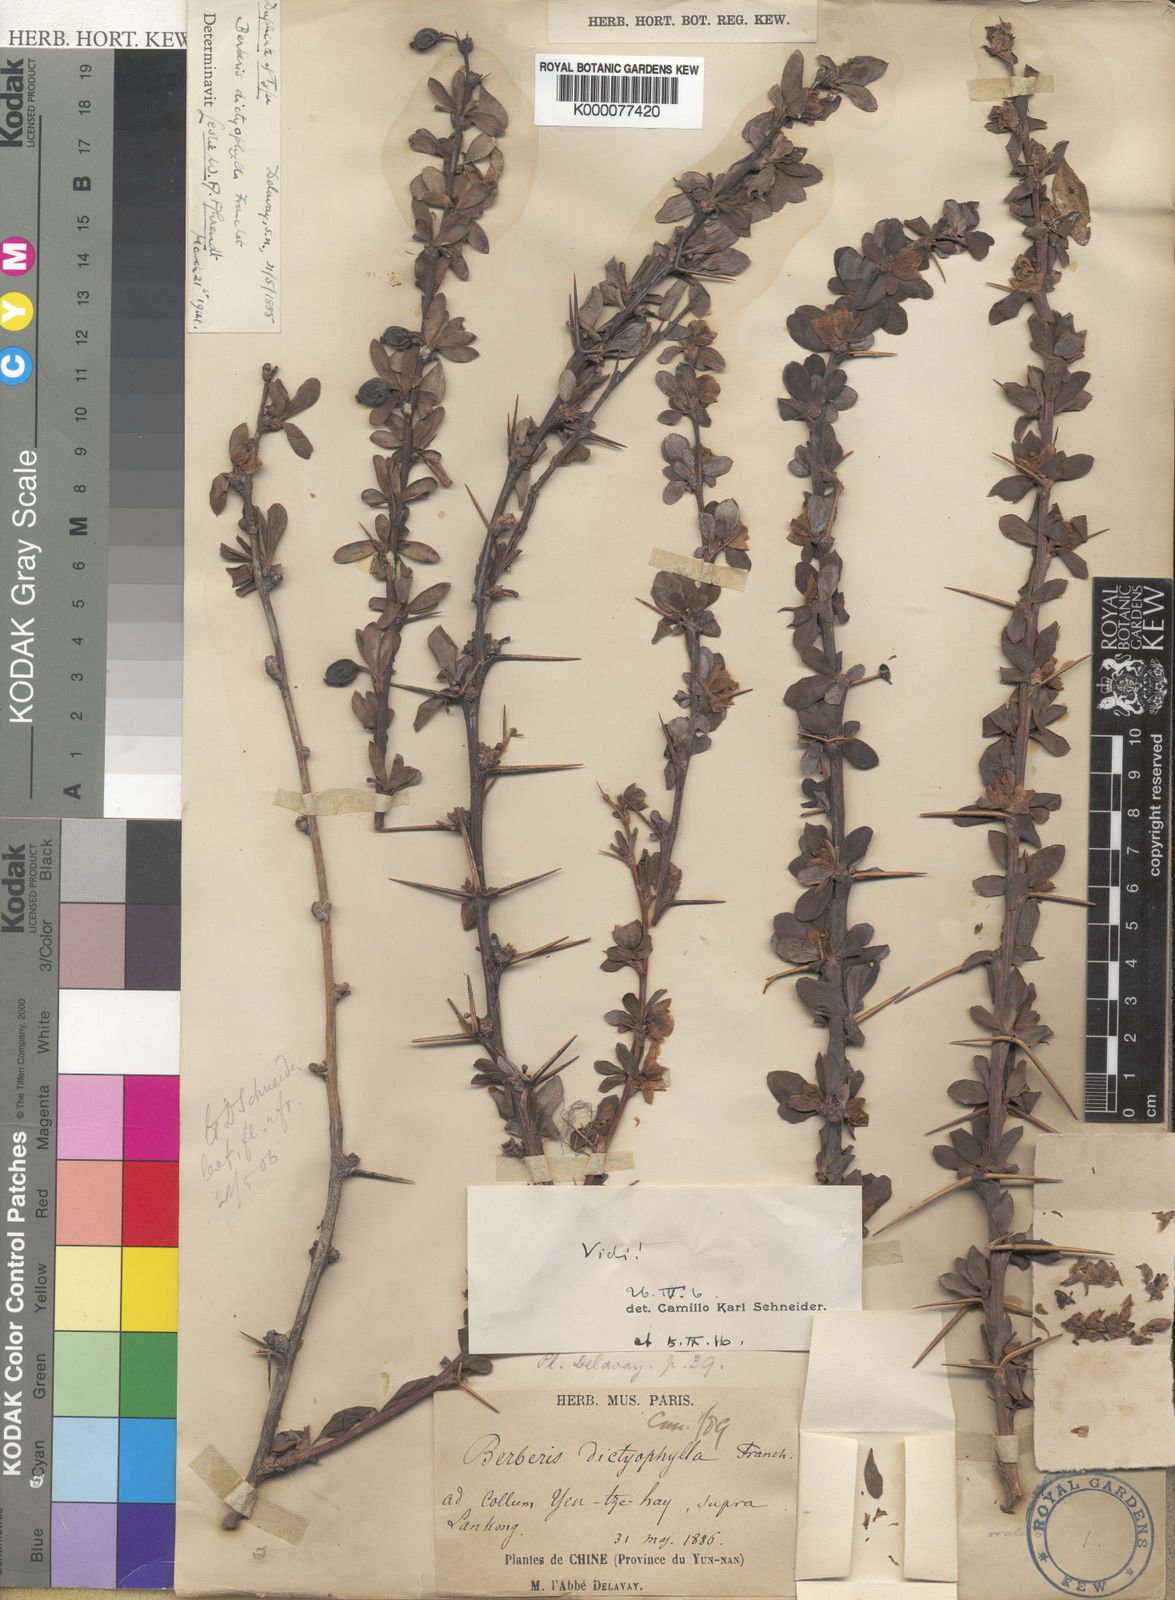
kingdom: Plantae
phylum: Tracheophyta
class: Magnoliopsida
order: Ranunculales
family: Berberidaceae
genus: Berberis
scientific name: Berberis dictyophylla
